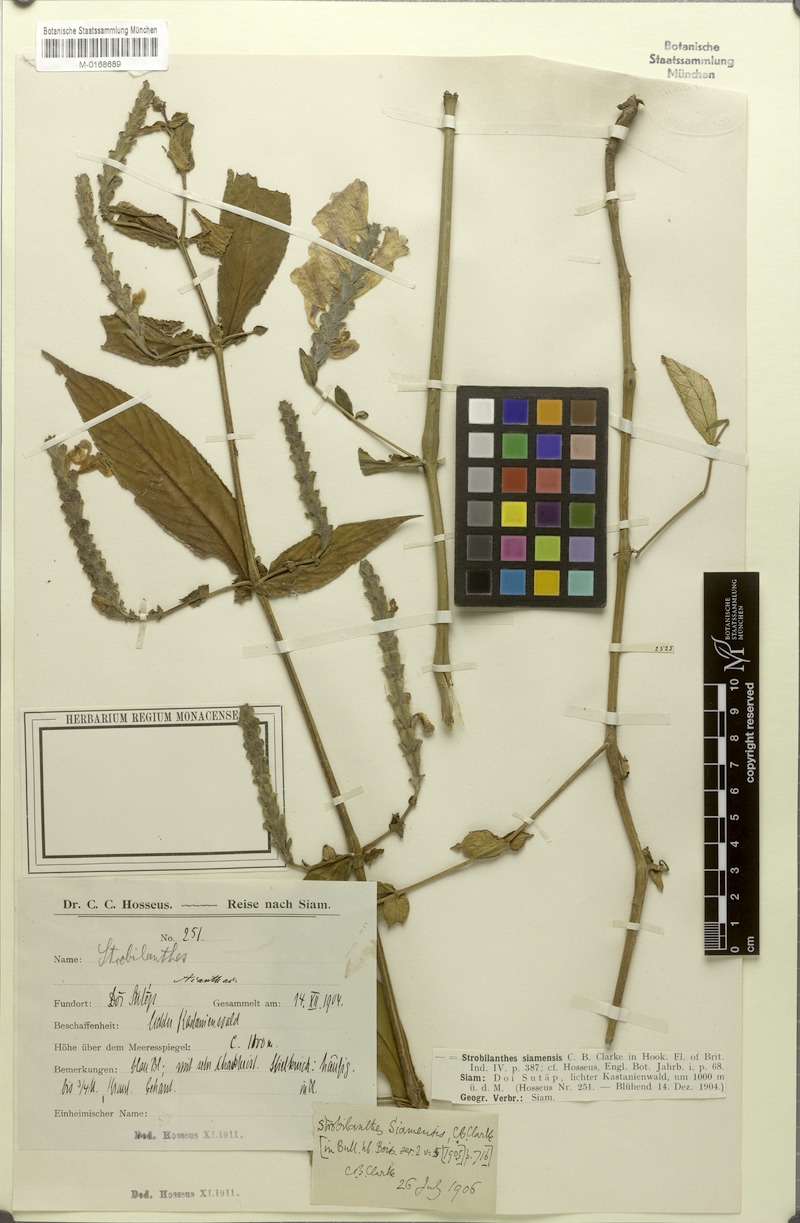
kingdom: Plantae
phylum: Tracheophyta
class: Magnoliopsida
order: Lamiales
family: Acanthaceae
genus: Strobilanthes
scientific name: Strobilanthes auriculata
